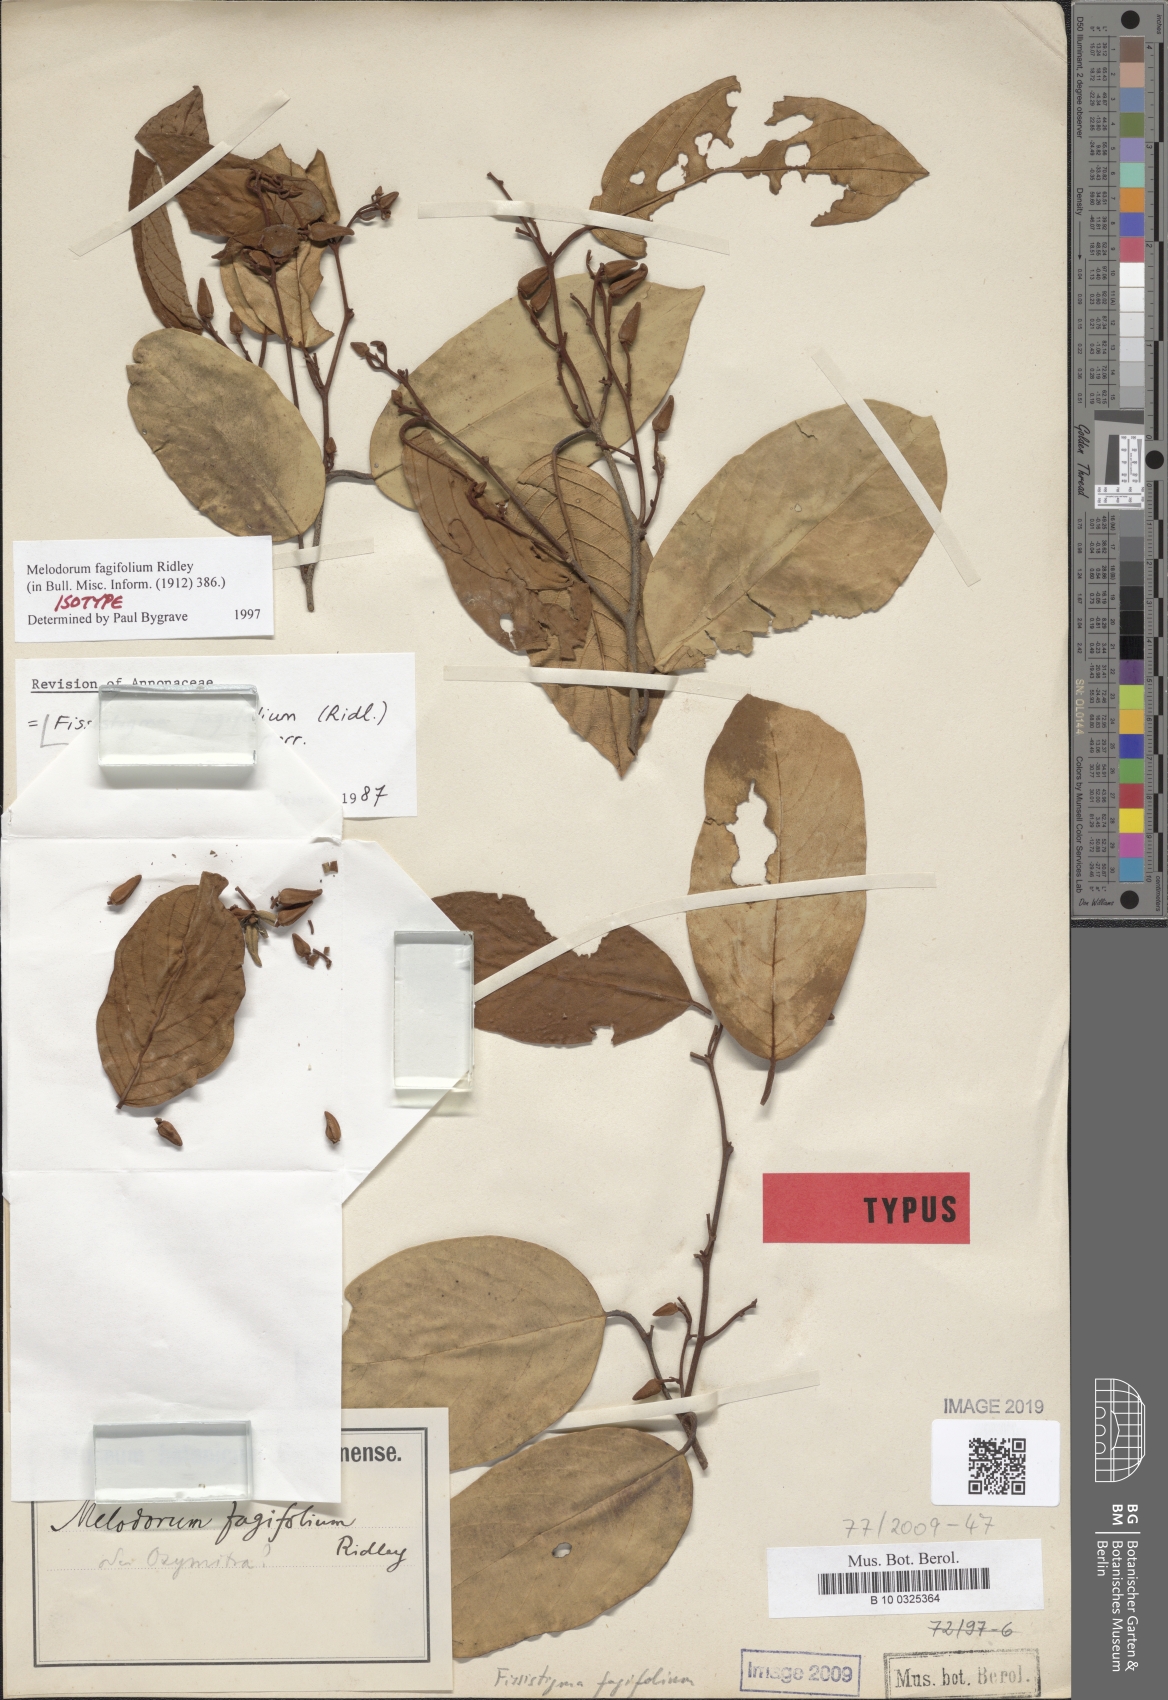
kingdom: Plantae
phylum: Tracheophyta
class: Magnoliopsida
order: Magnoliales
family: Annonaceae
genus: Fissistigma
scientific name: Fissistigma kingii
